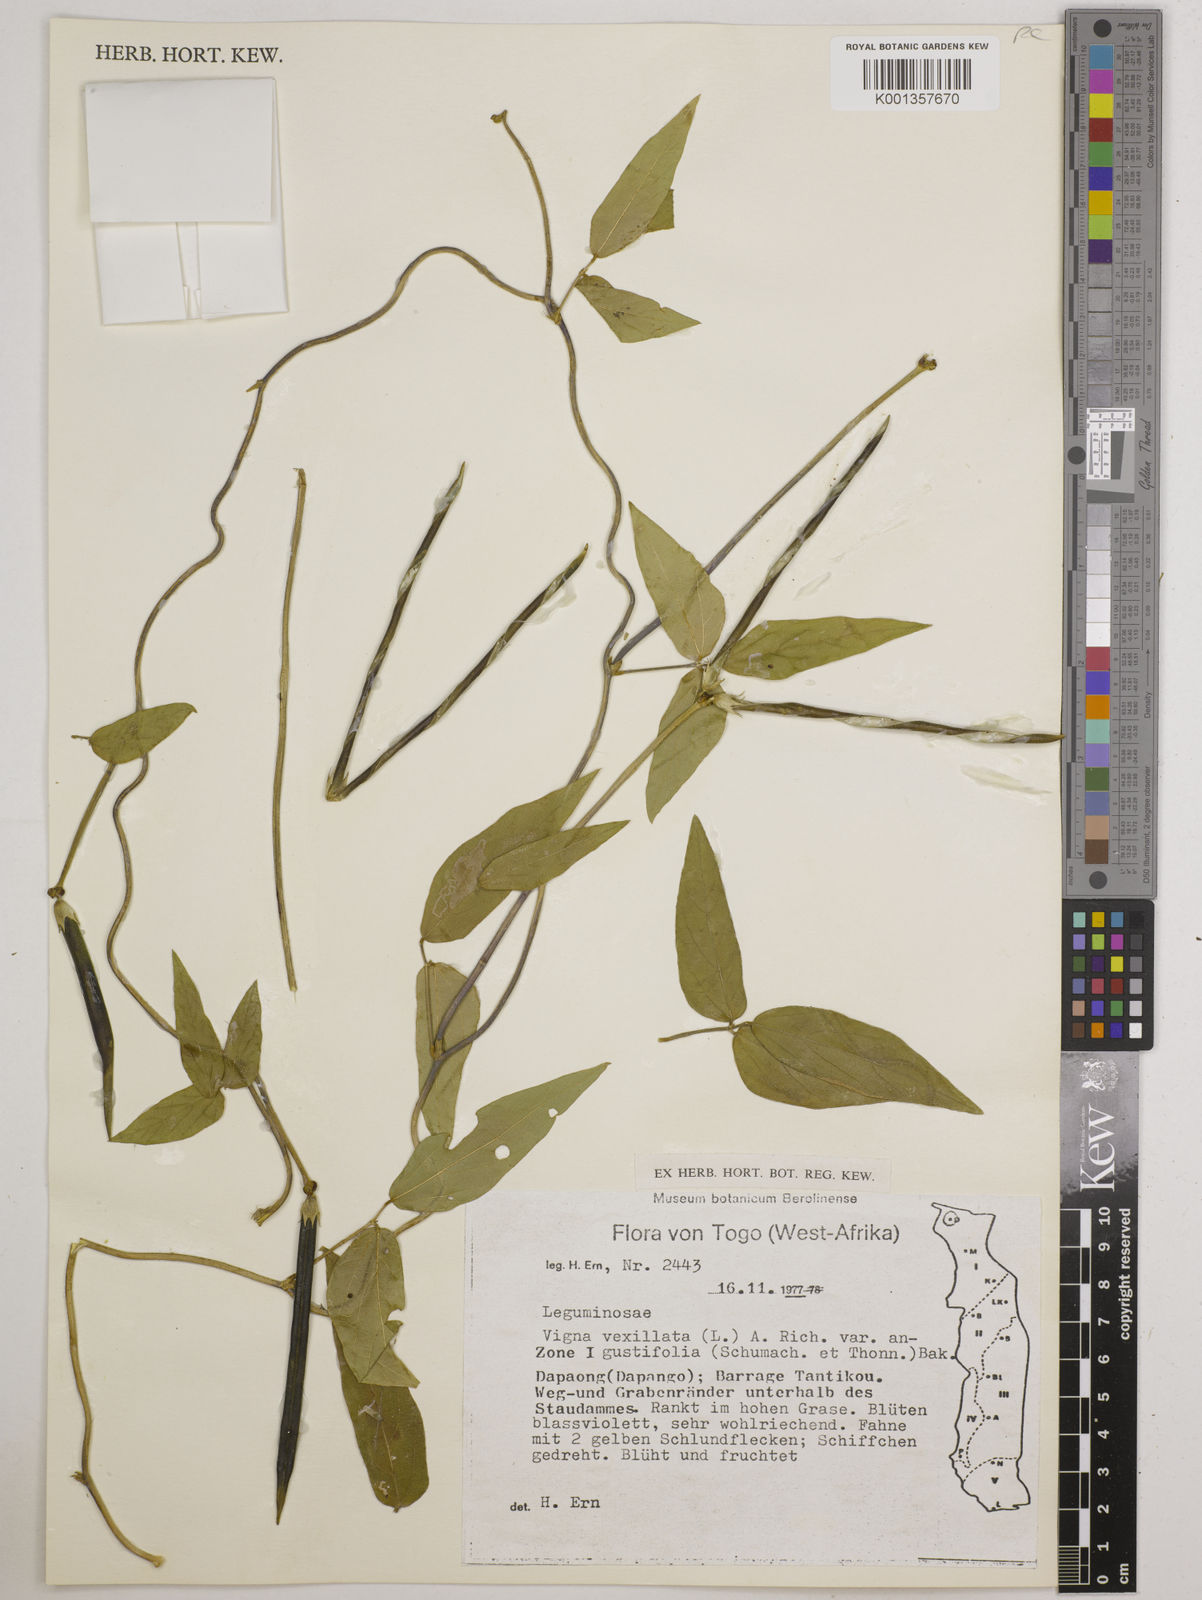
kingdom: Plantae
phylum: Tracheophyta
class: Magnoliopsida
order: Fabales
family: Fabaceae
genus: Vigna
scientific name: Vigna vexillata
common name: Zombi pea
